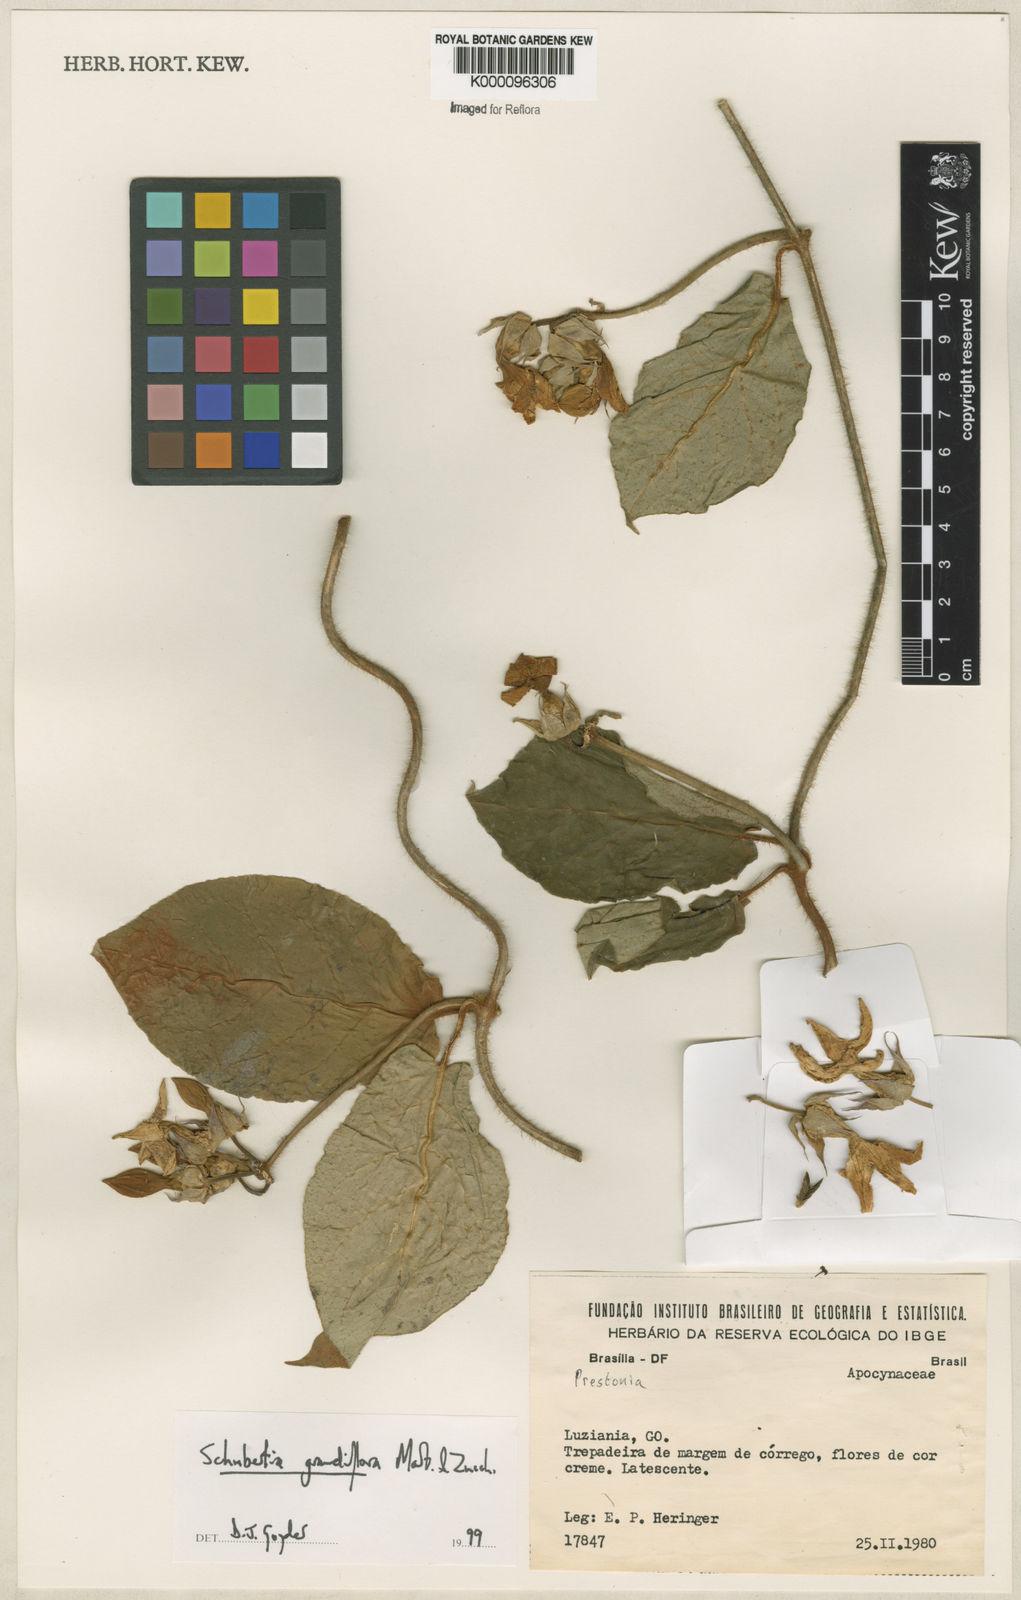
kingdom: Plantae
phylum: Tracheophyta
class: Magnoliopsida
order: Gentianales
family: Apocynaceae
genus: Macroscepis
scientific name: Macroscepis grandiflora
